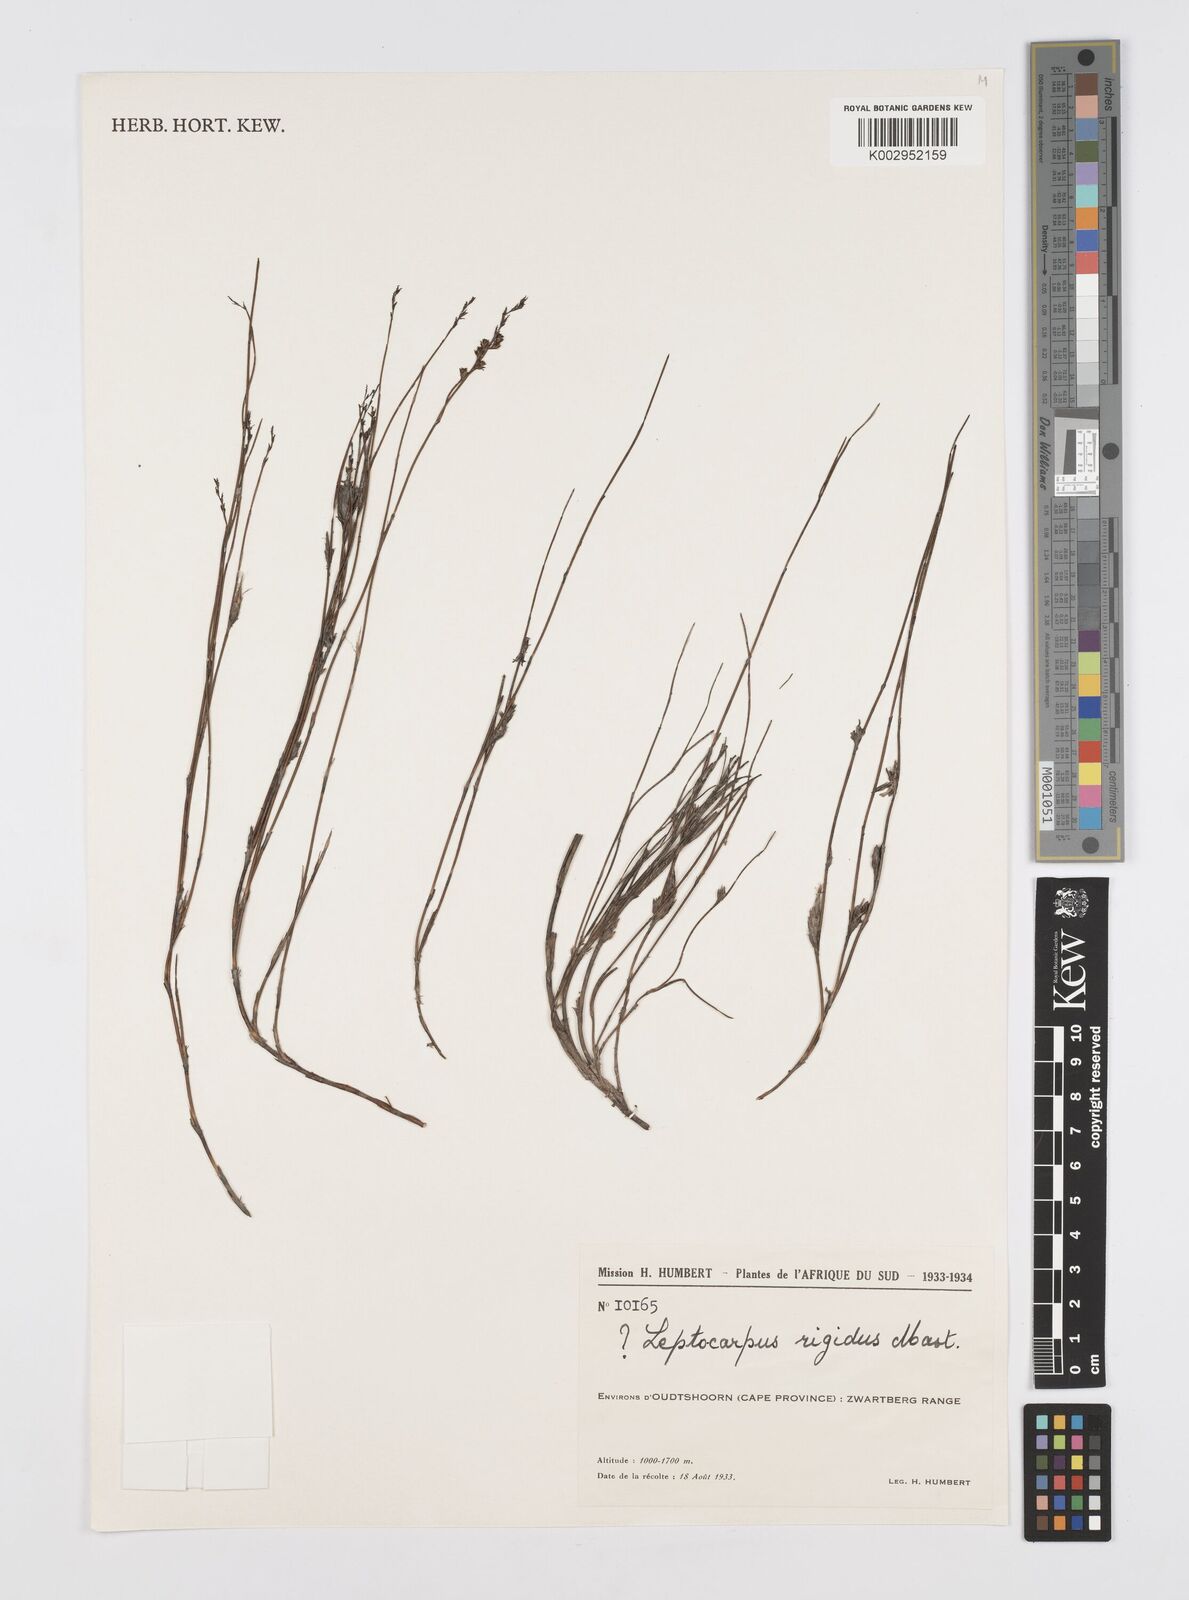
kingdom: Plantae
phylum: Tracheophyta
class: Liliopsida
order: Poales
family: Restionaceae
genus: Restio
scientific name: Restio rigidus
